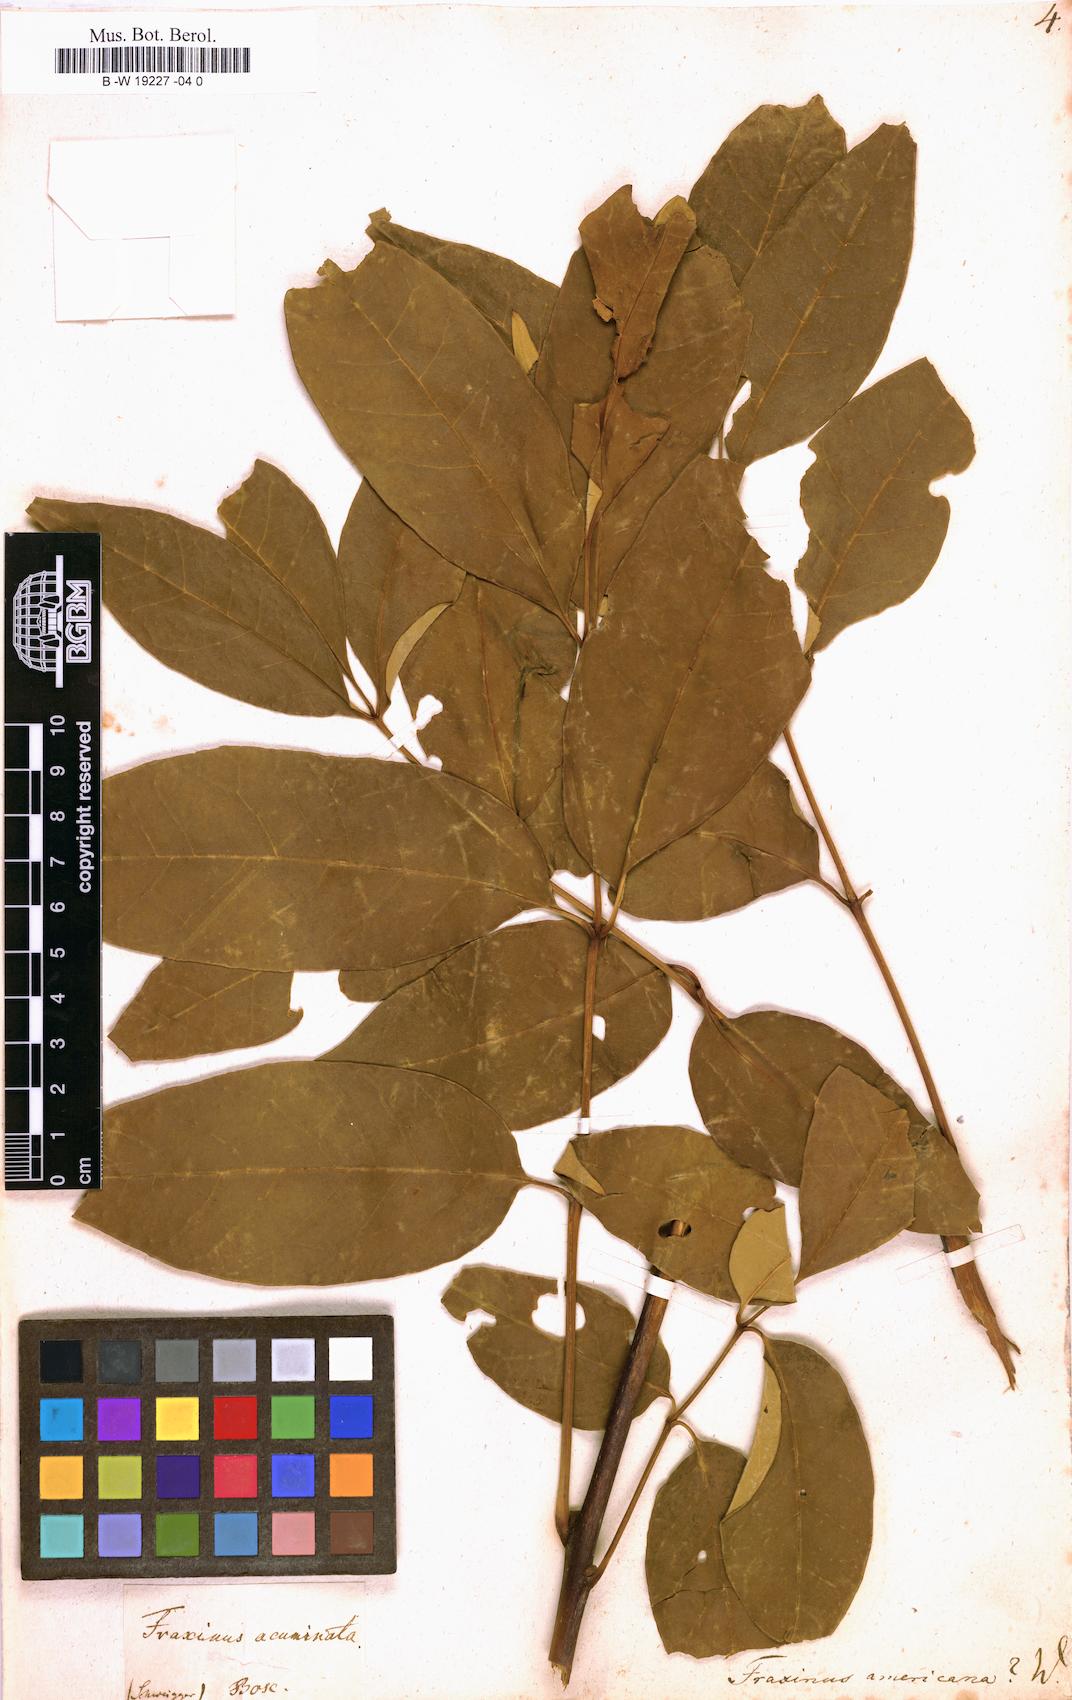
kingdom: Plantae
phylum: Tracheophyta
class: Magnoliopsida
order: Lamiales
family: Oleaceae
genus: Fraxinus
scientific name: Fraxinus americana
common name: White ash
